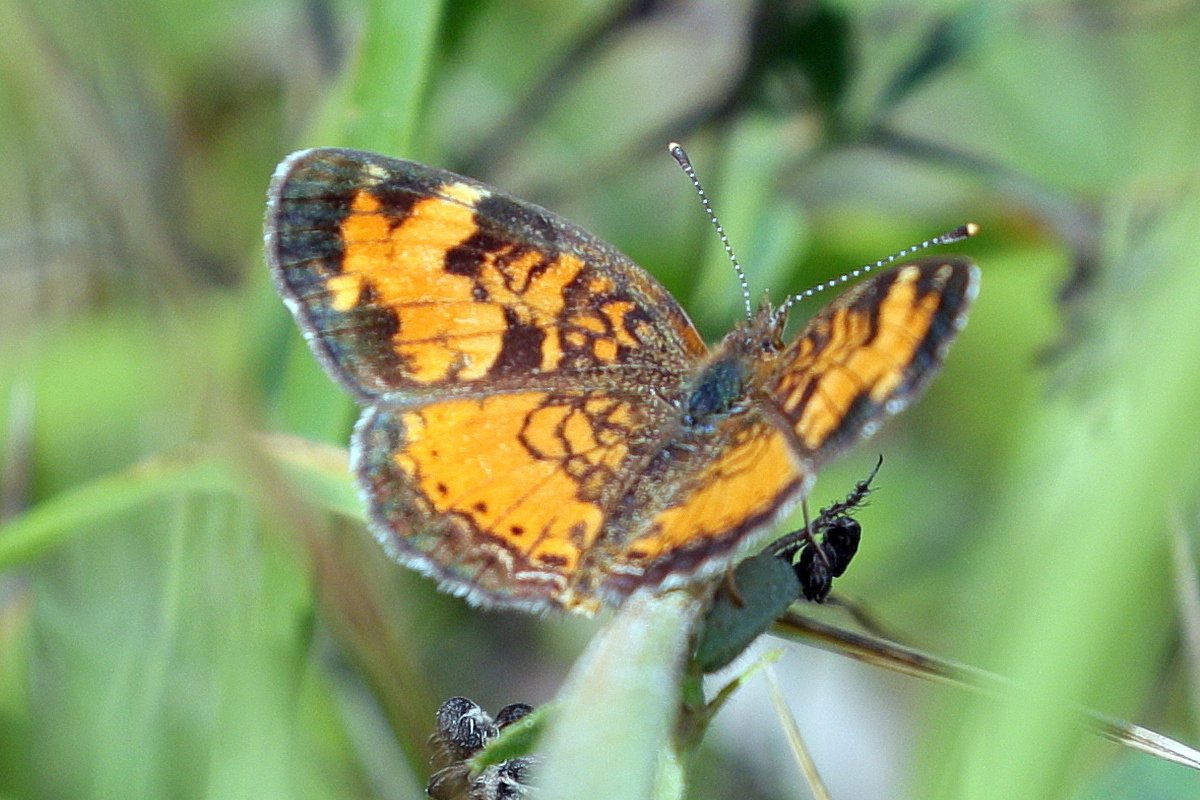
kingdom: Animalia
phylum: Arthropoda
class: Insecta
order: Lepidoptera
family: Nymphalidae
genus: Phyciodes
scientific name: Phyciodes tharos
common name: Northern Crescent
